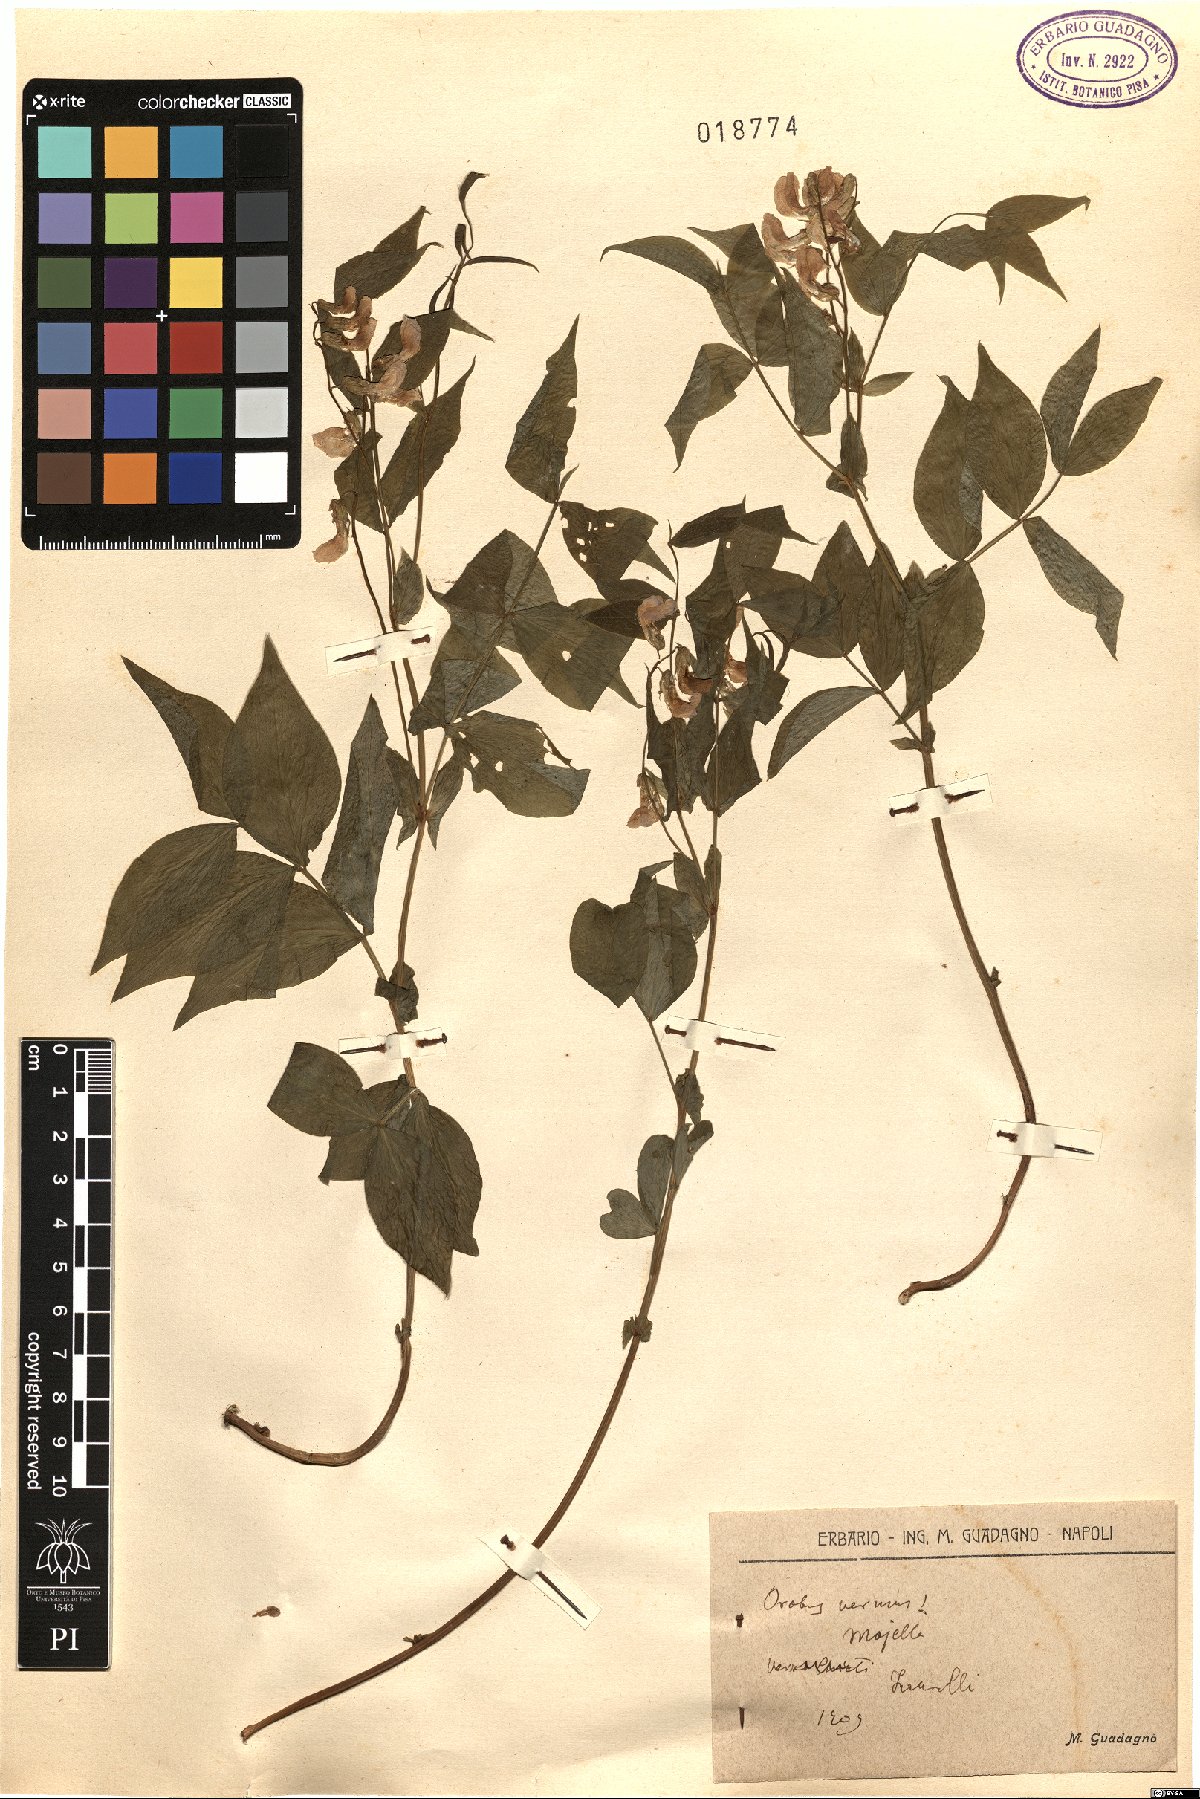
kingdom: Plantae
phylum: Tracheophyta
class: Magnoliopsida
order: Fabales
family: Fabaceae
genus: Lathyrus
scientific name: Lathyrus vernus
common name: Spring pea
